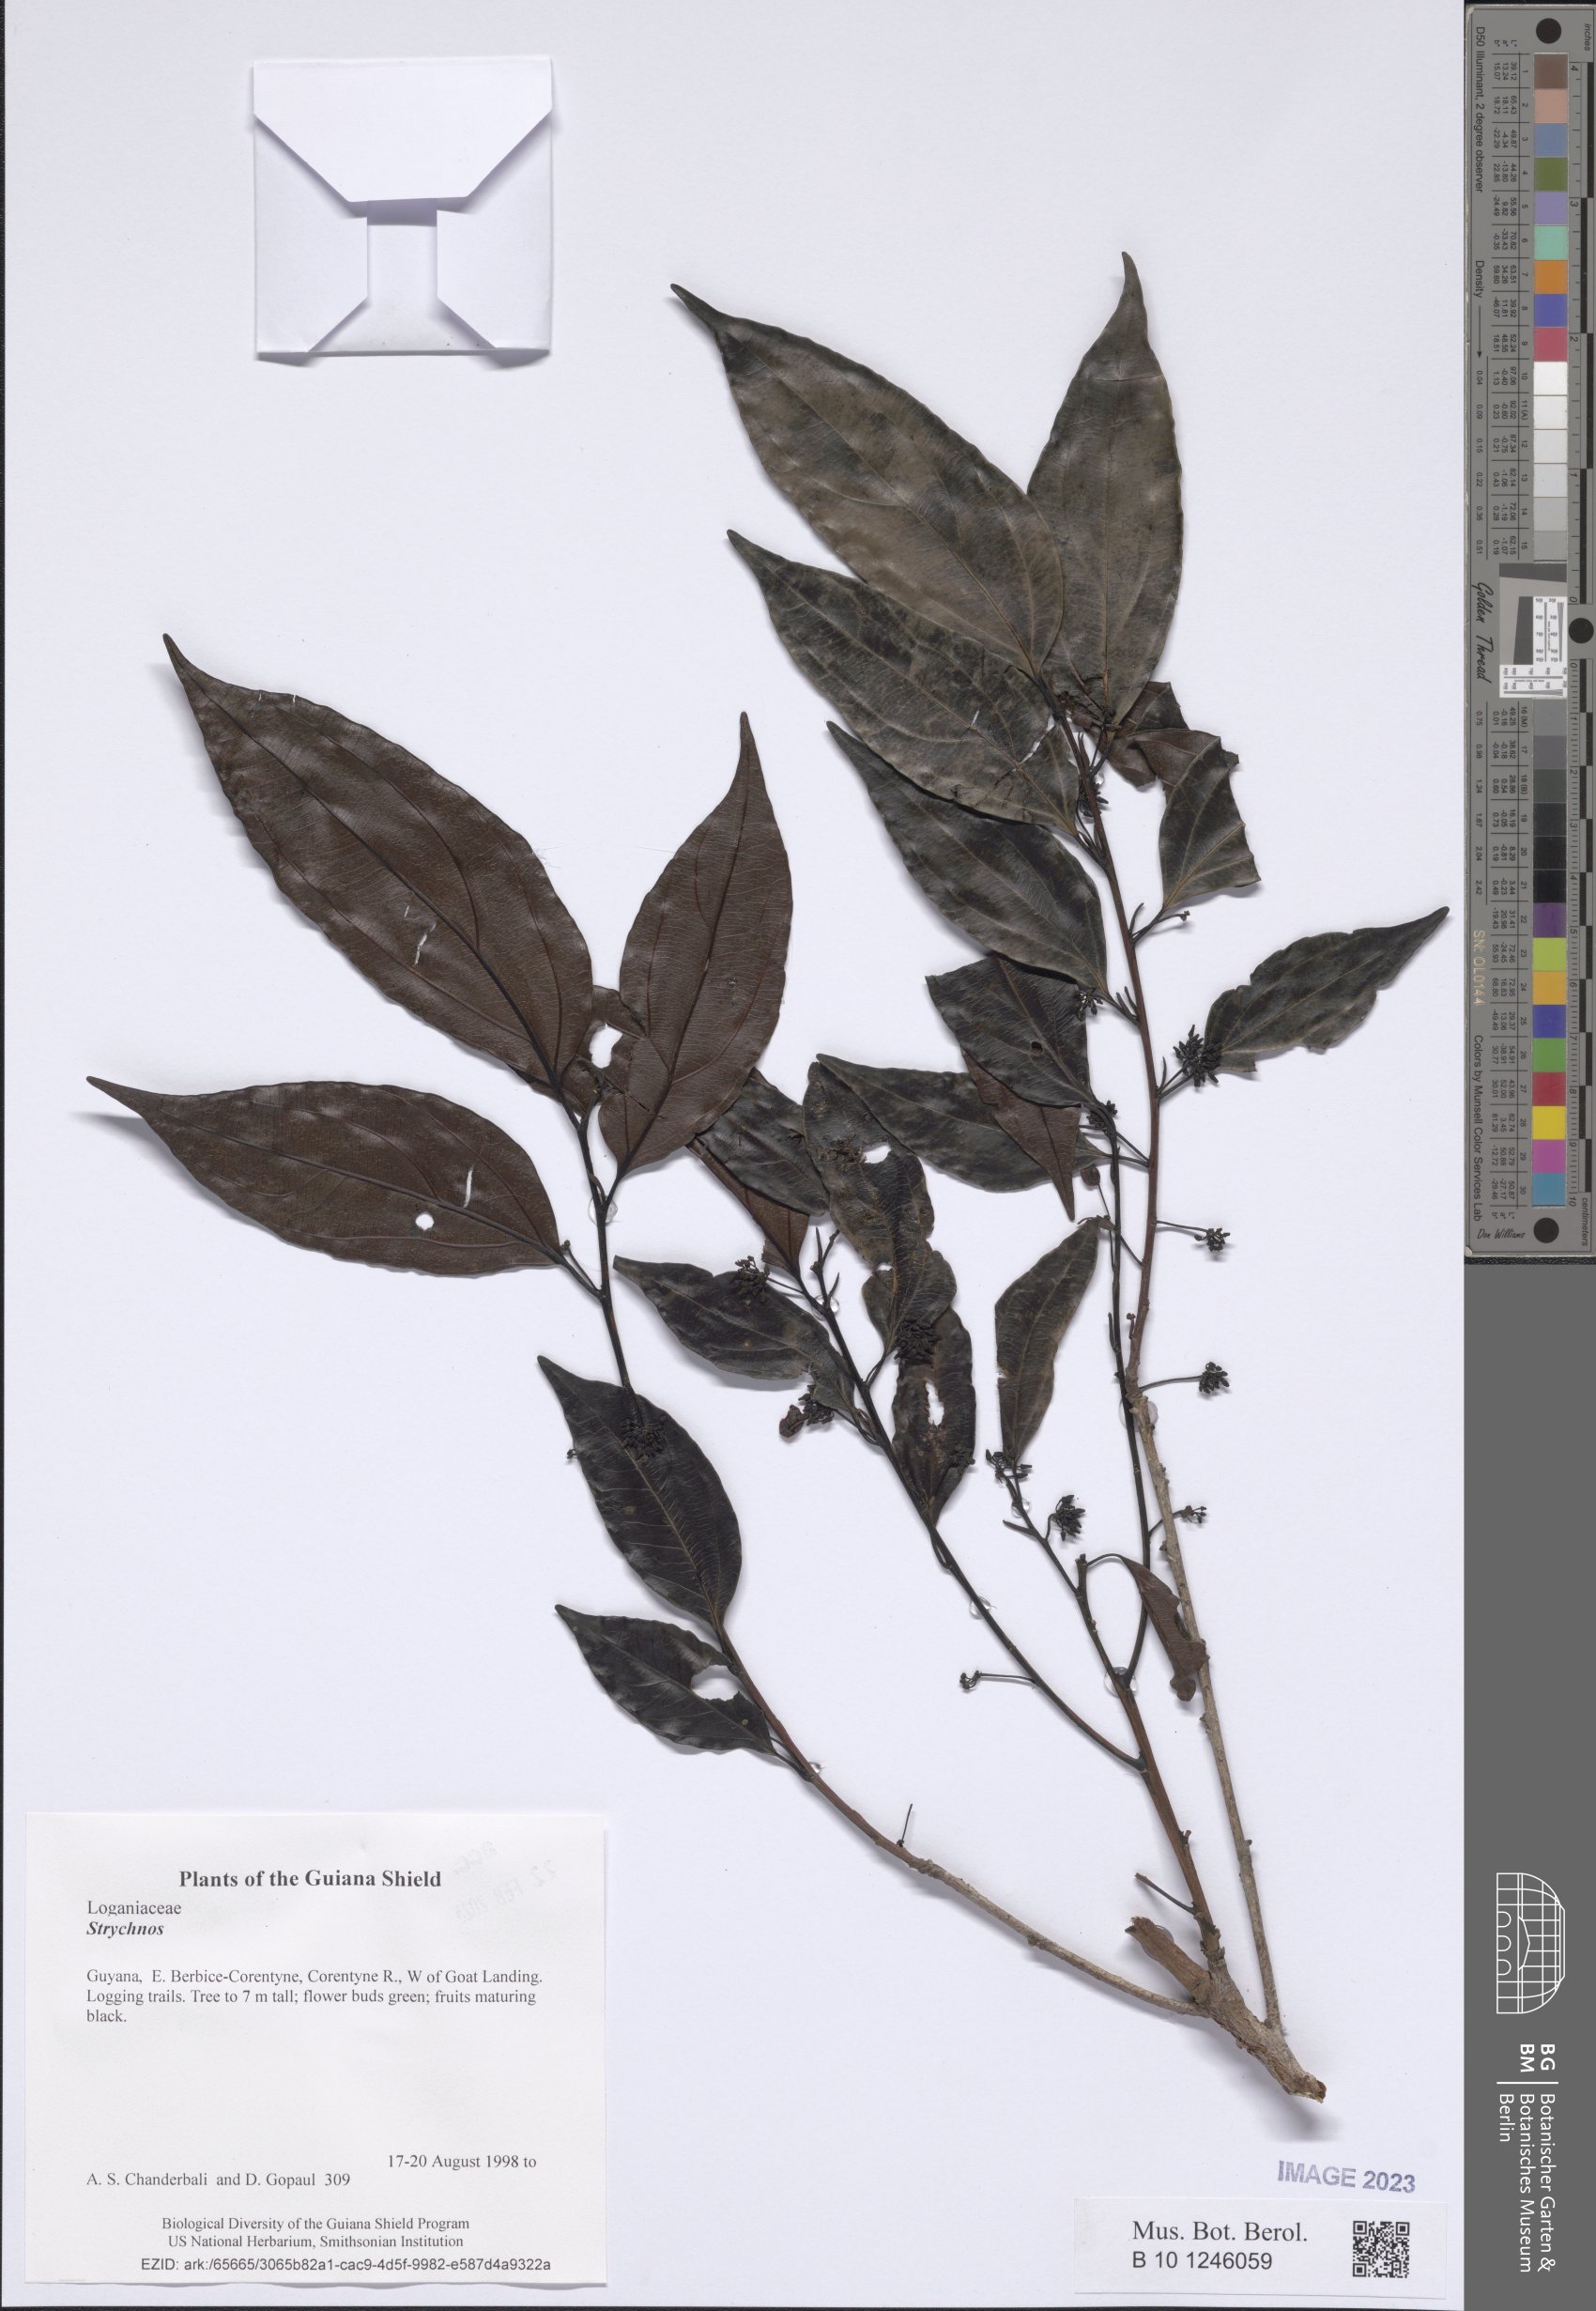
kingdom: Plantae
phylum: Tracheophyta
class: Magnoliopsida
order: Gentianales
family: Loganiaceae
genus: Strychnos
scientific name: Strychnos
